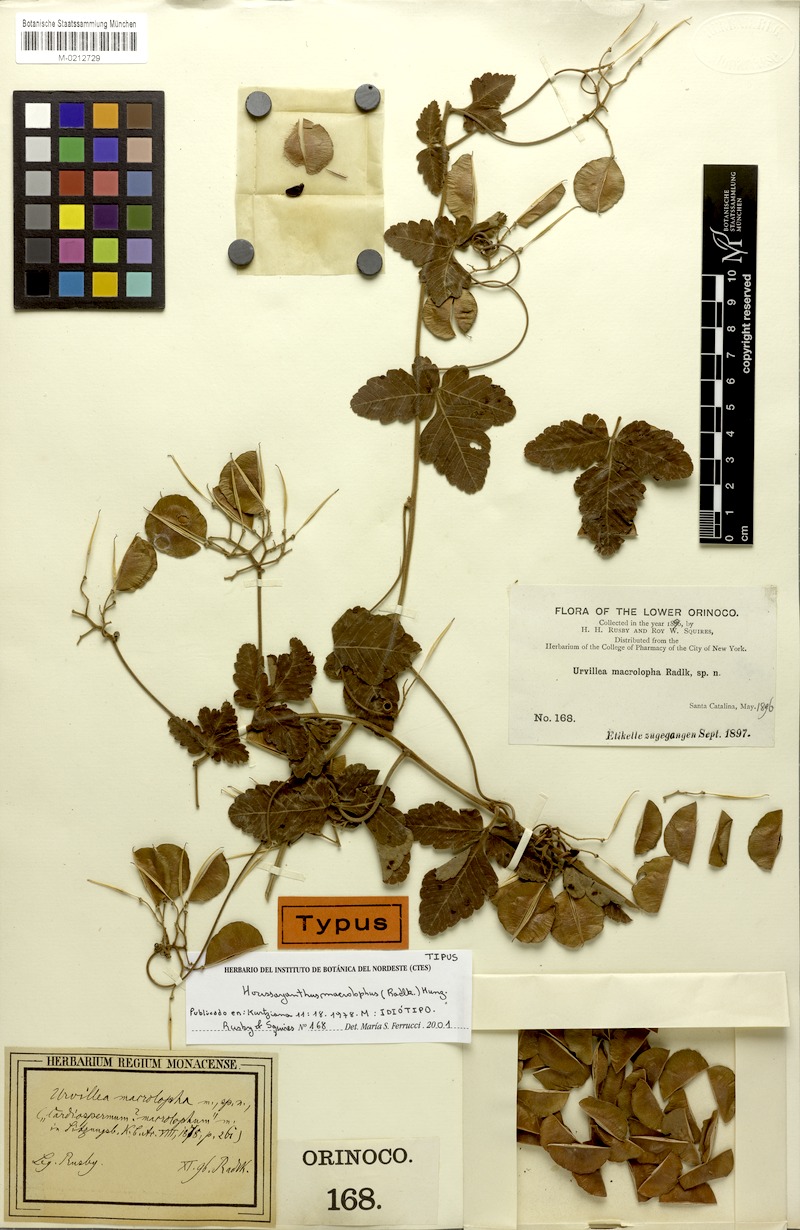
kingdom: Plantae
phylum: Tracheophyta
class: Magnoliopsida
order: Sapindales
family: Sapindaceae
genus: Serjania
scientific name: Serjania macrolopha
